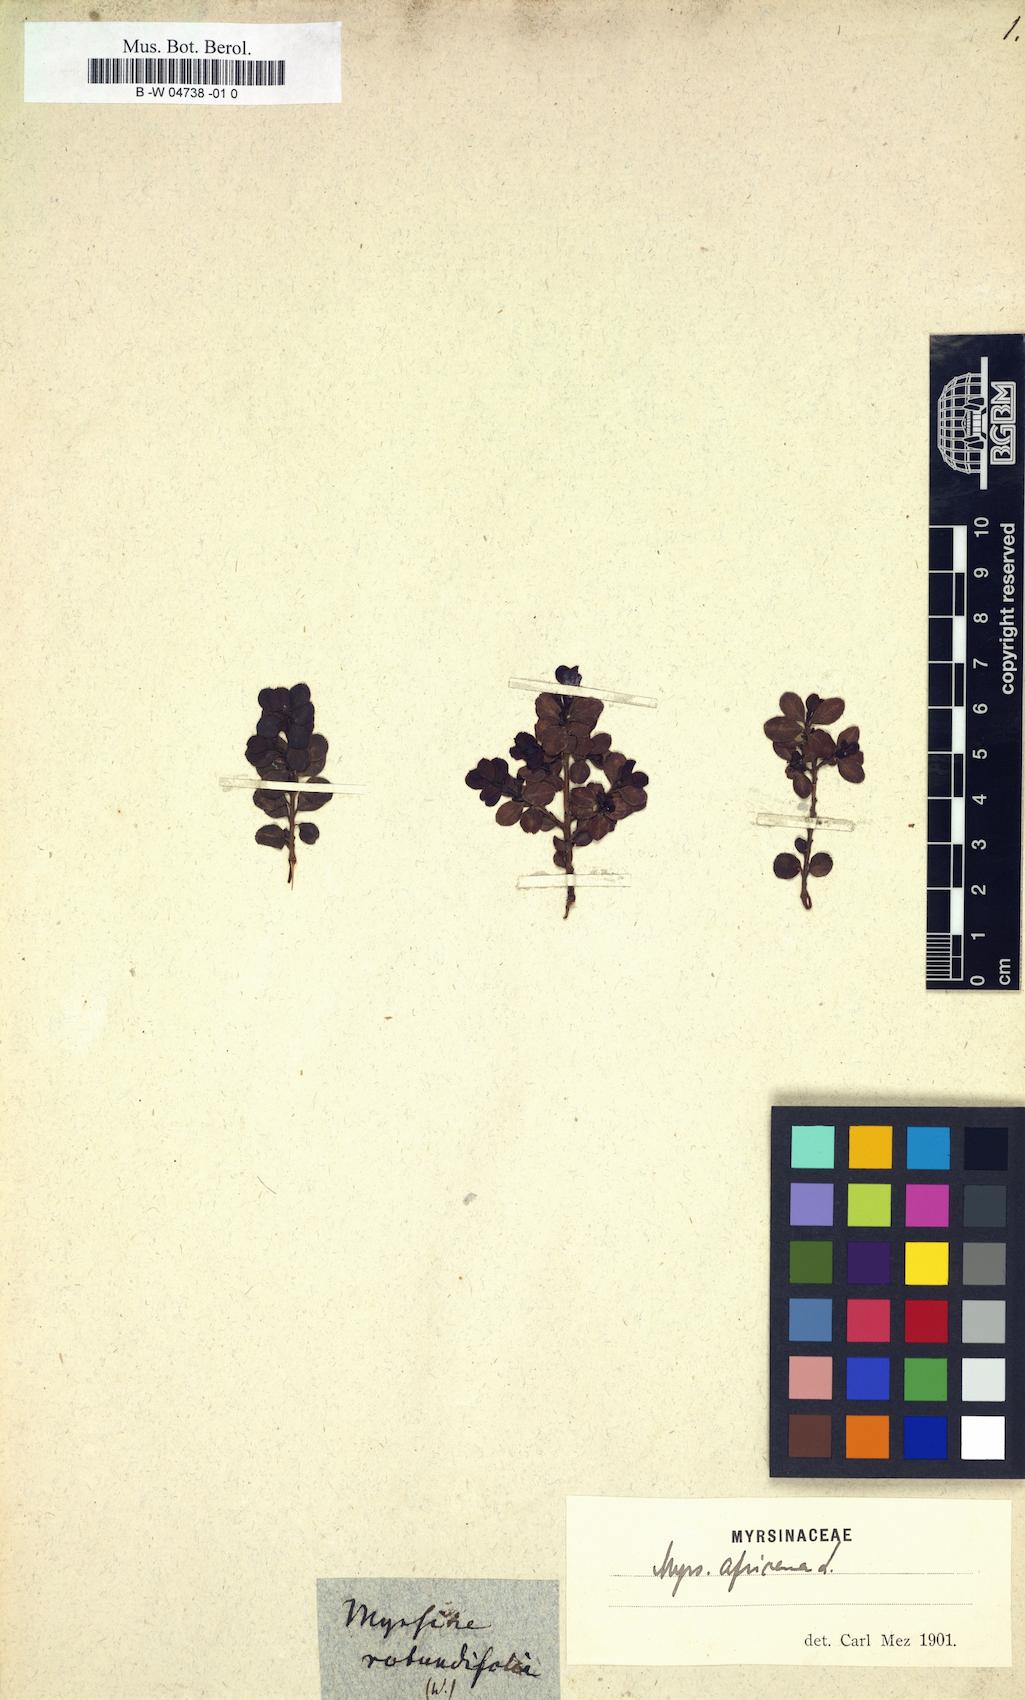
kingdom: Plantae
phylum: Tracheophyta
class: Magnoliopsida
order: Ericales
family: Primulaceae
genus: Myrsine
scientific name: Myrsine africana
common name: African-boxwood
